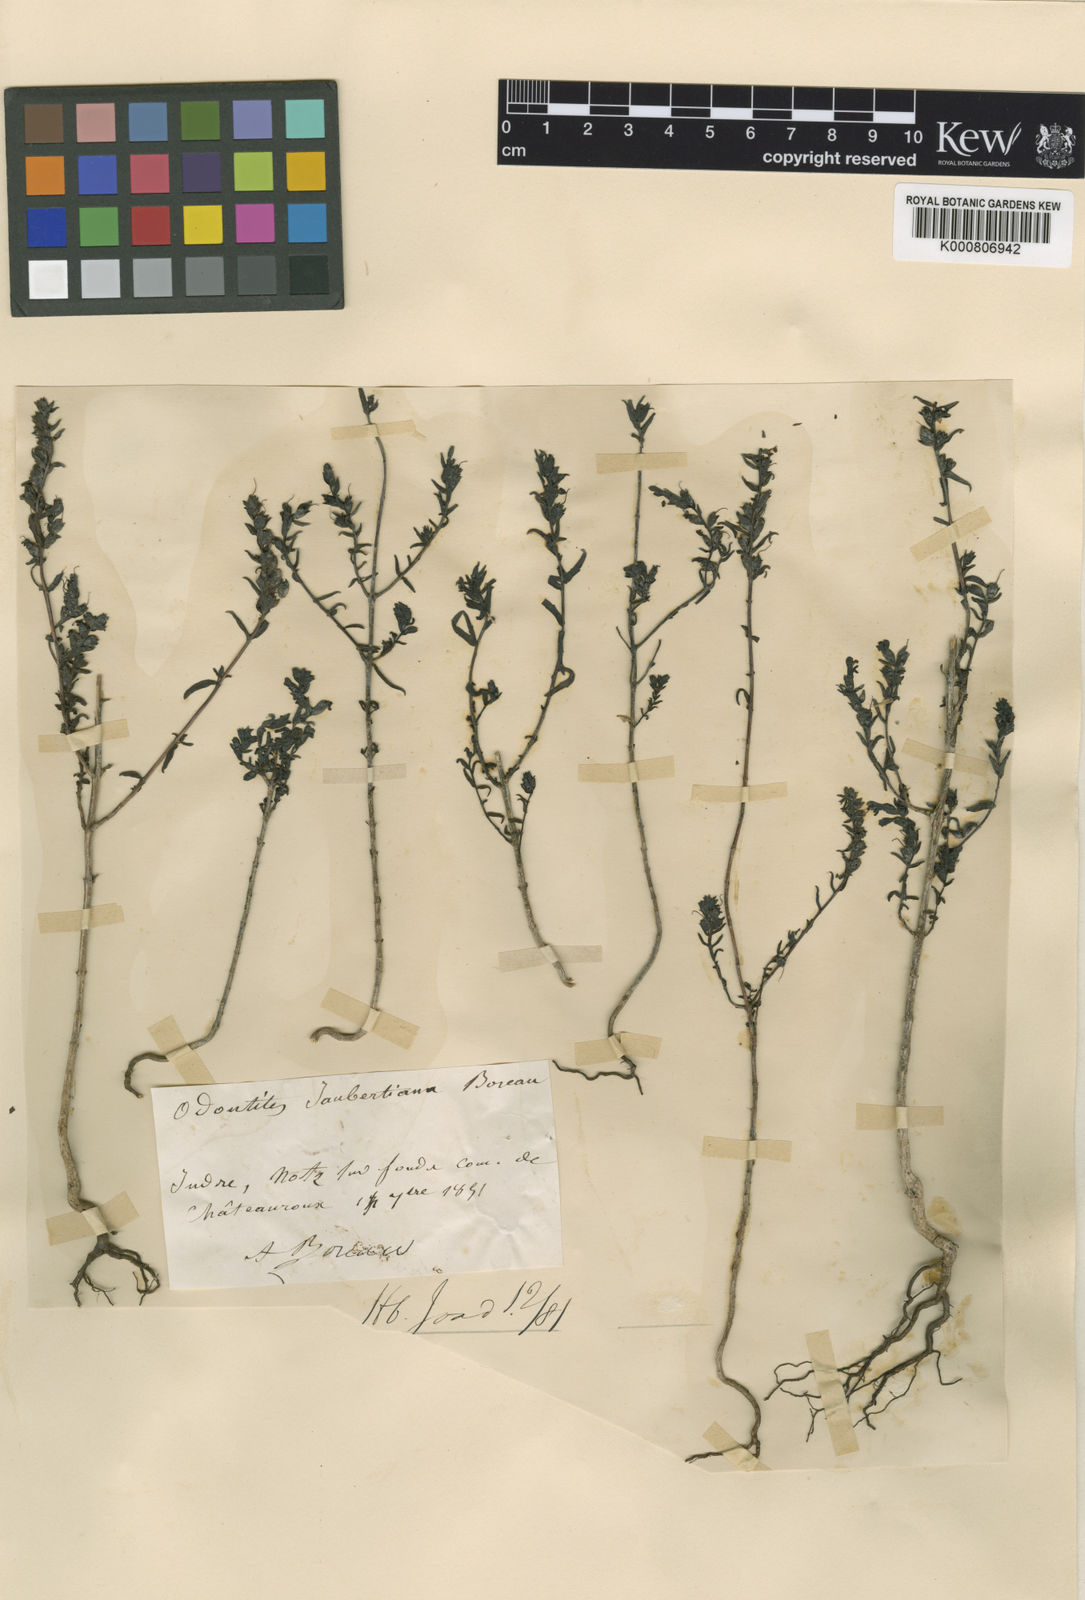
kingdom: Plantae
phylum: Tracheophyta
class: Magnoliopsida
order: Lamiales
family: Orobanchaceae
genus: Odontites
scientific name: Odontites
